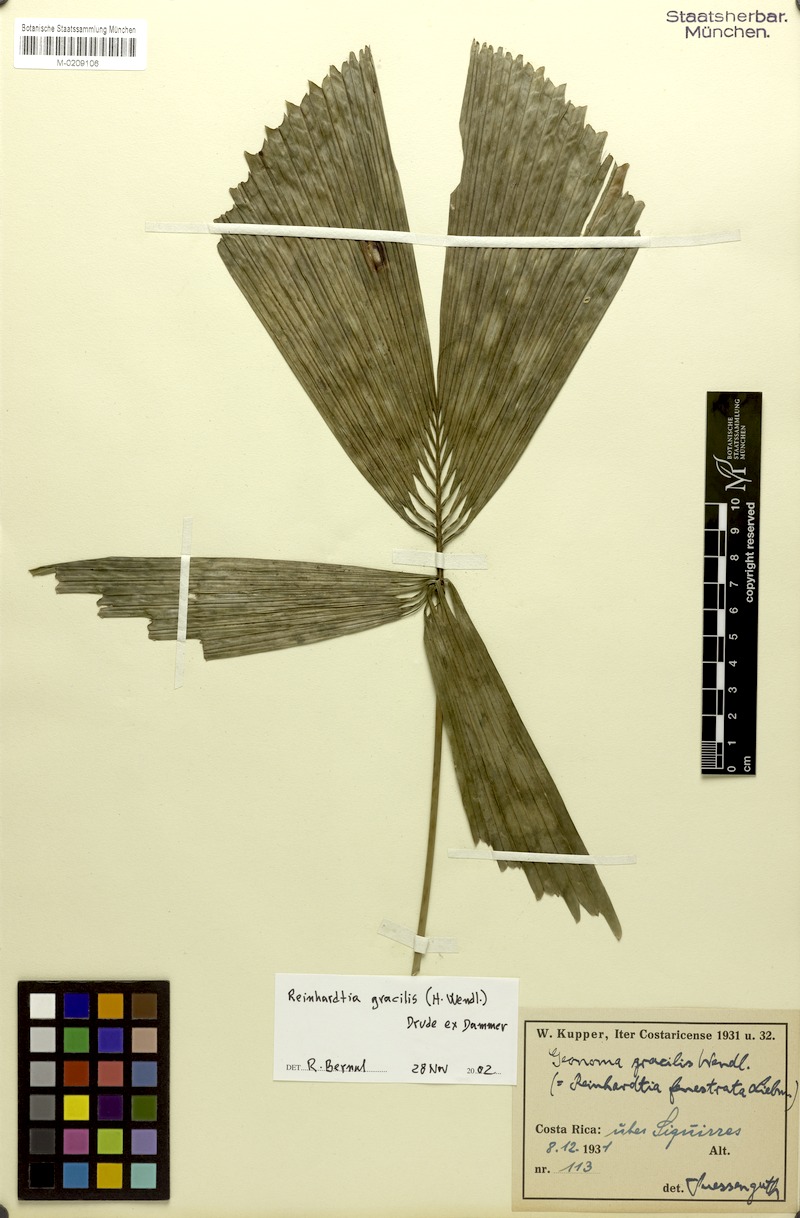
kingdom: Plantae
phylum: Tracheophyta
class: Liliopsida
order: Arecales
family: Arecaceae
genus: Reinhardtia
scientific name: Reinhardtia gracilis
